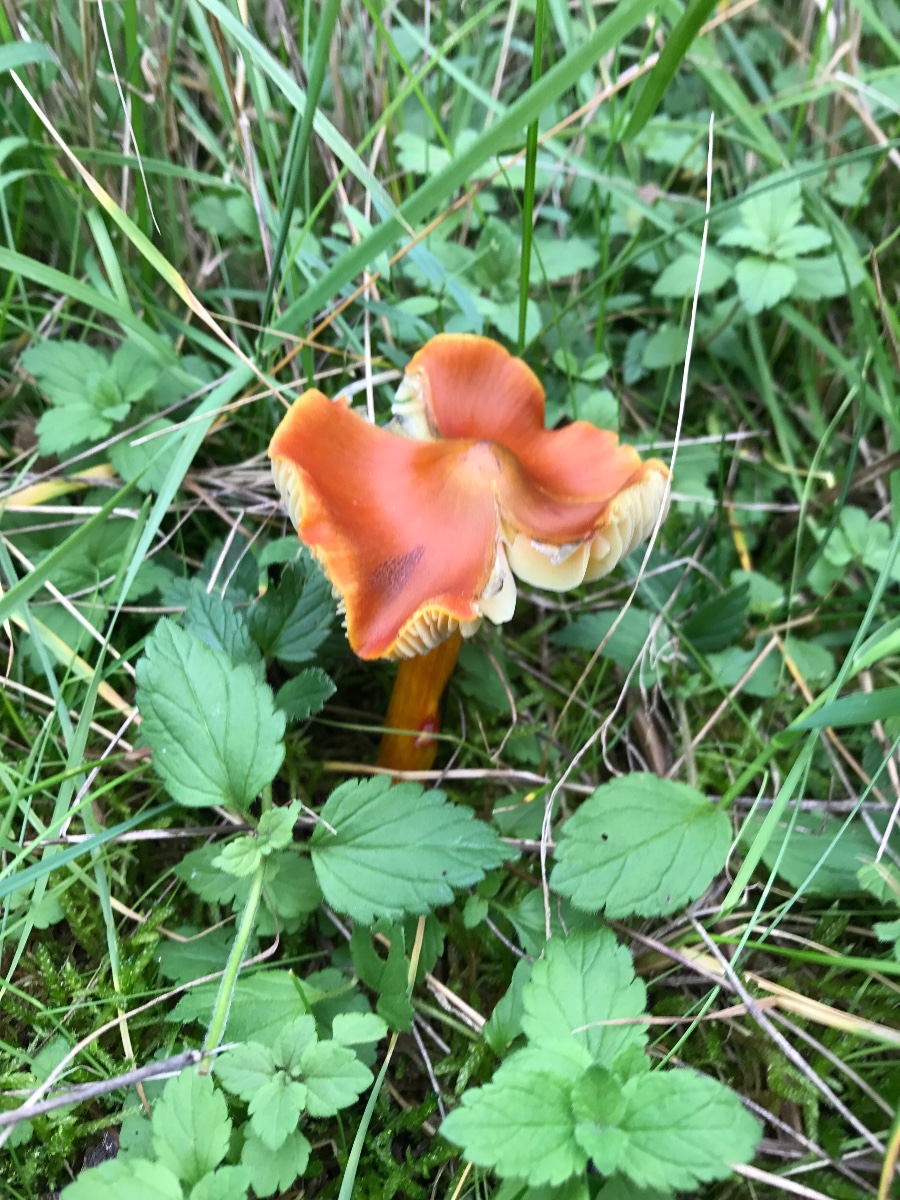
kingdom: Fungi
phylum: Basidiomycota
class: Agaricomycetes
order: Agaricales
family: Hygrophoraceae
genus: Hygrocybe
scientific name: Hygrocybe conica
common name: kegle-vokshat
